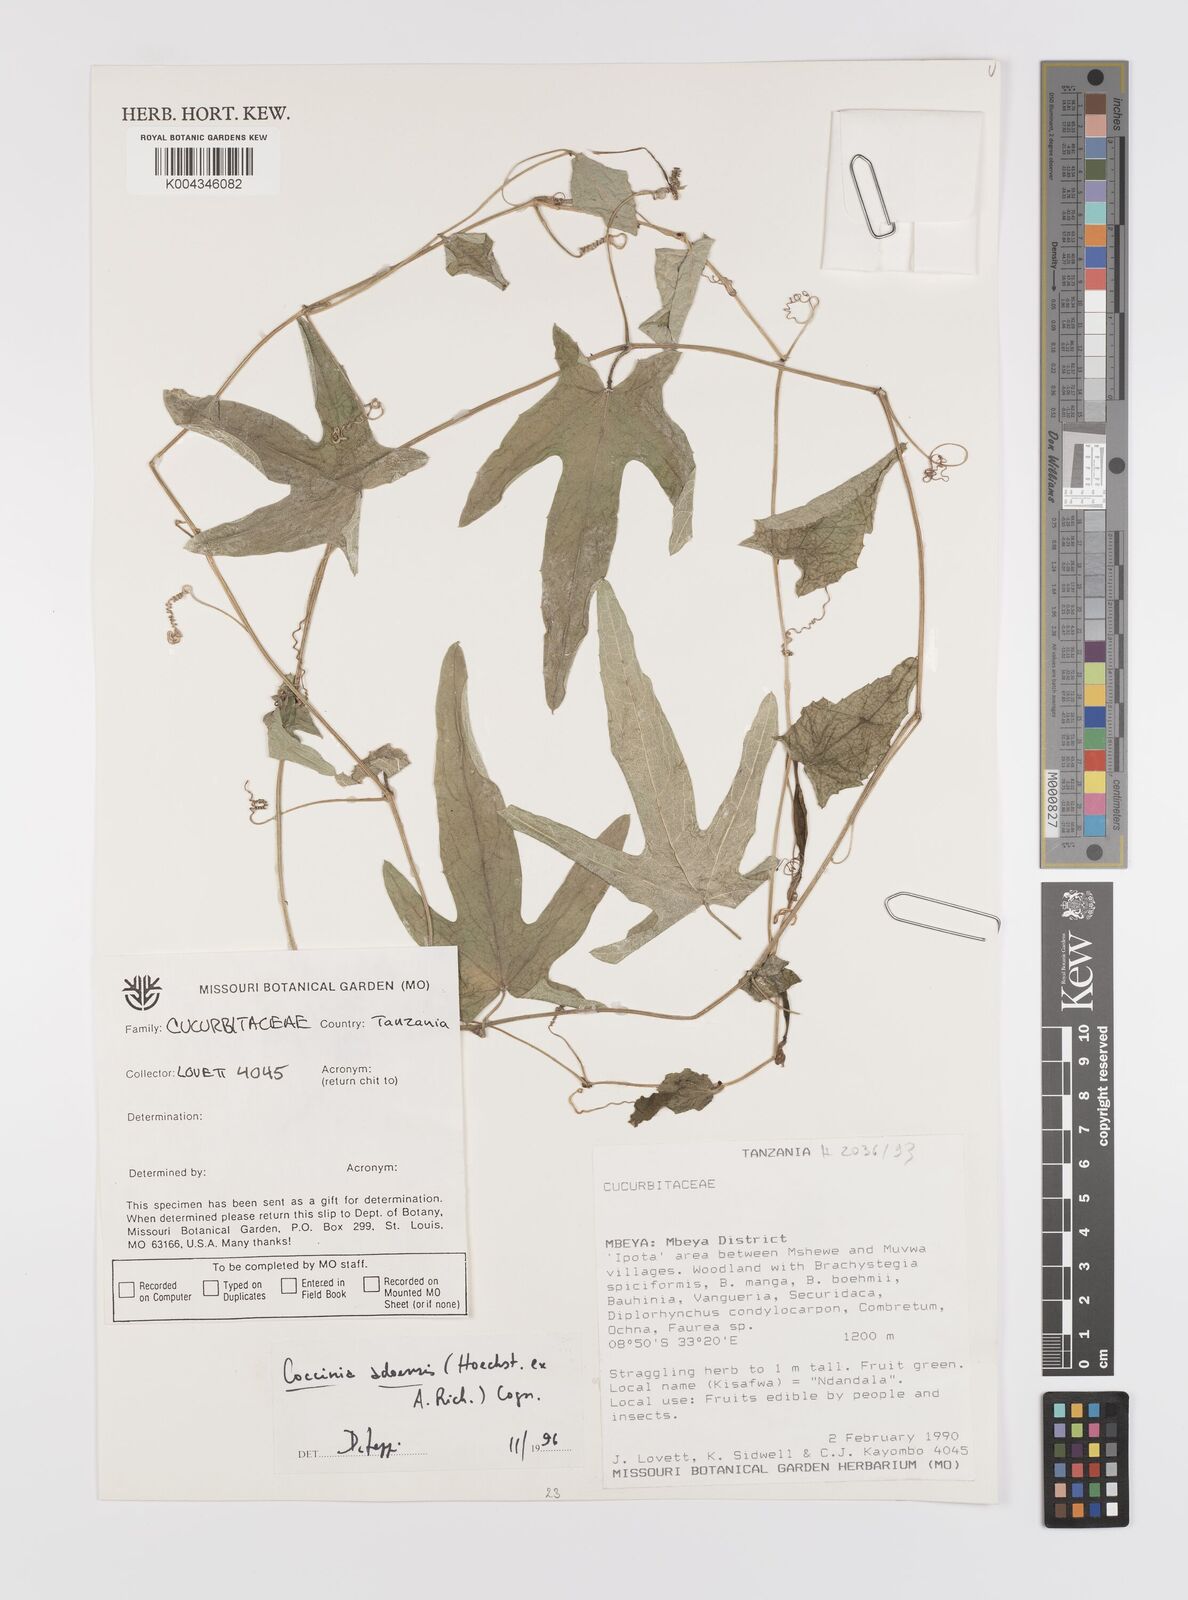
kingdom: Plantae
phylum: Tracheophyta
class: Magnoliopsida
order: Cucurbitales
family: Cucurbitaceae
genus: Coccinia
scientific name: Coccinia adoensis
